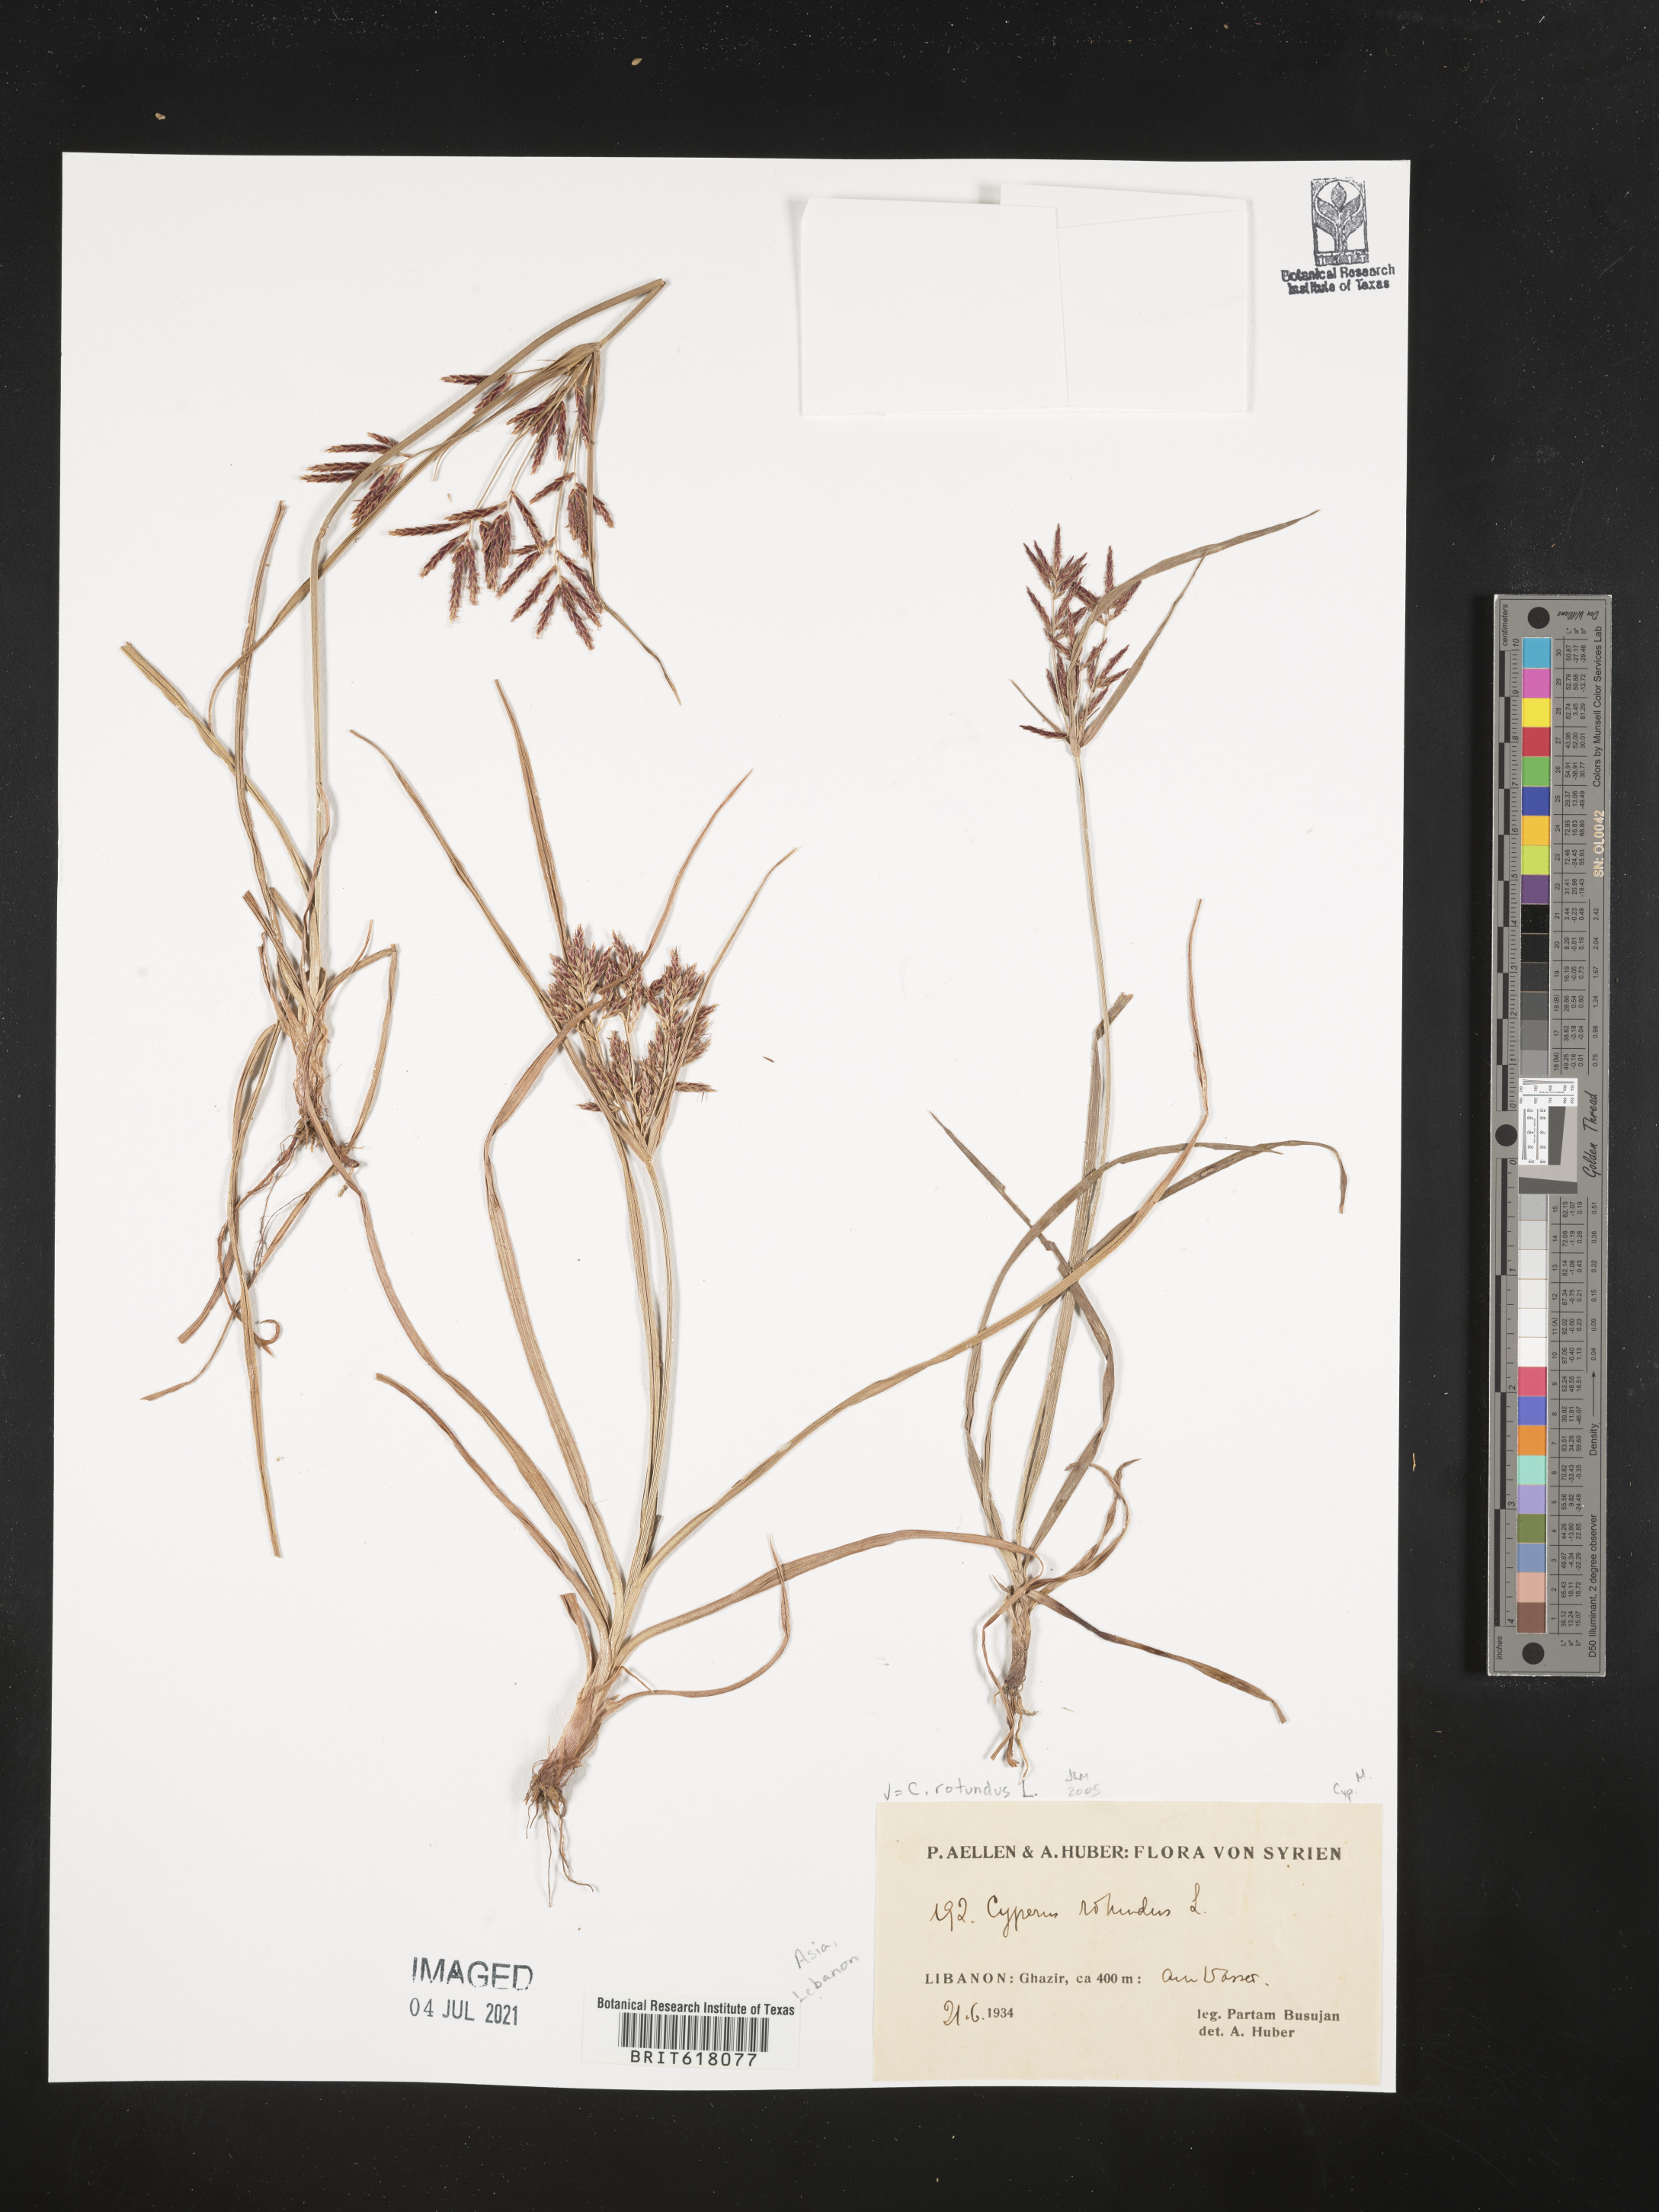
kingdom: Plantae
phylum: Tracheophyta
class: Liliopsida
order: Poales
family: Cyperaceae
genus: Cyperus
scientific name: Cyperus rotundus
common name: Nutgrass
